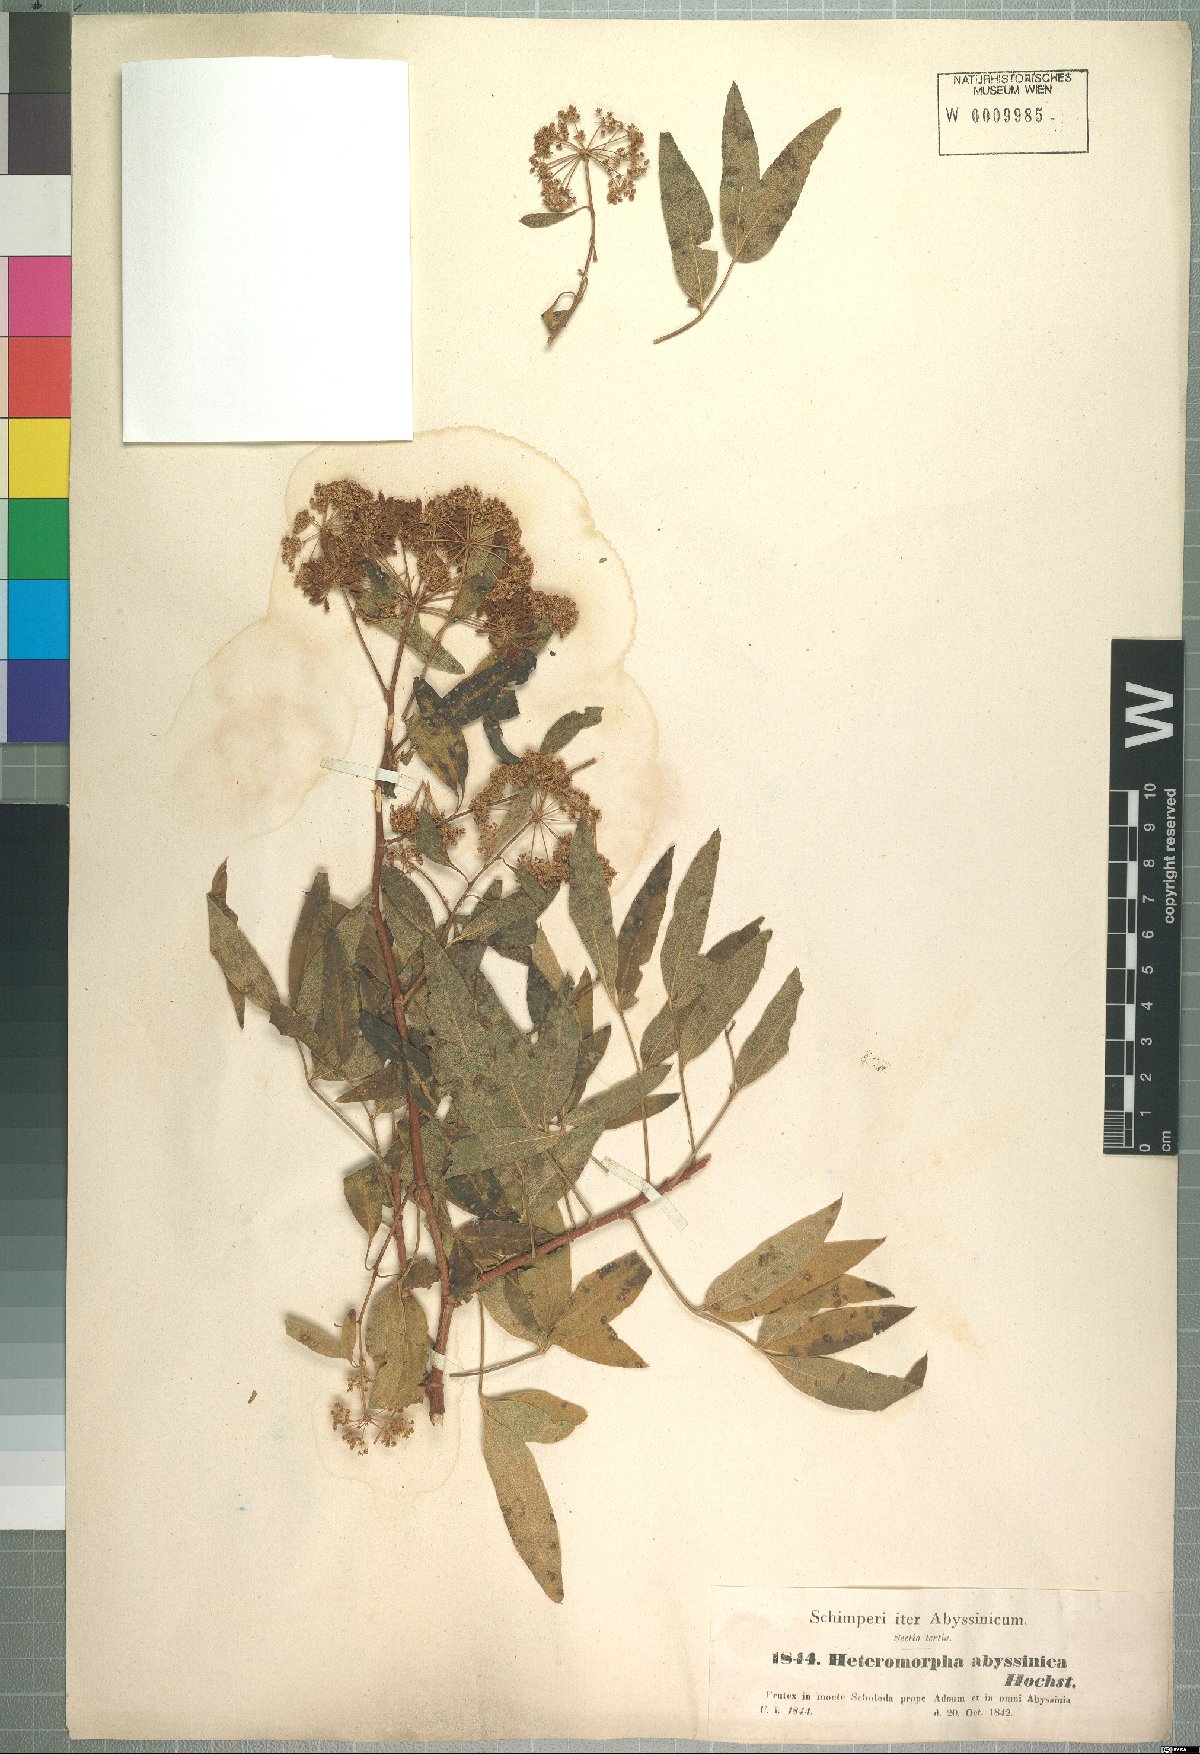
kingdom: Plantae
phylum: Tracheophyta
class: Magnoliopsida
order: Apiales
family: Apiaceae
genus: Heteromorpha
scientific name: Heteromorpha arborescens
